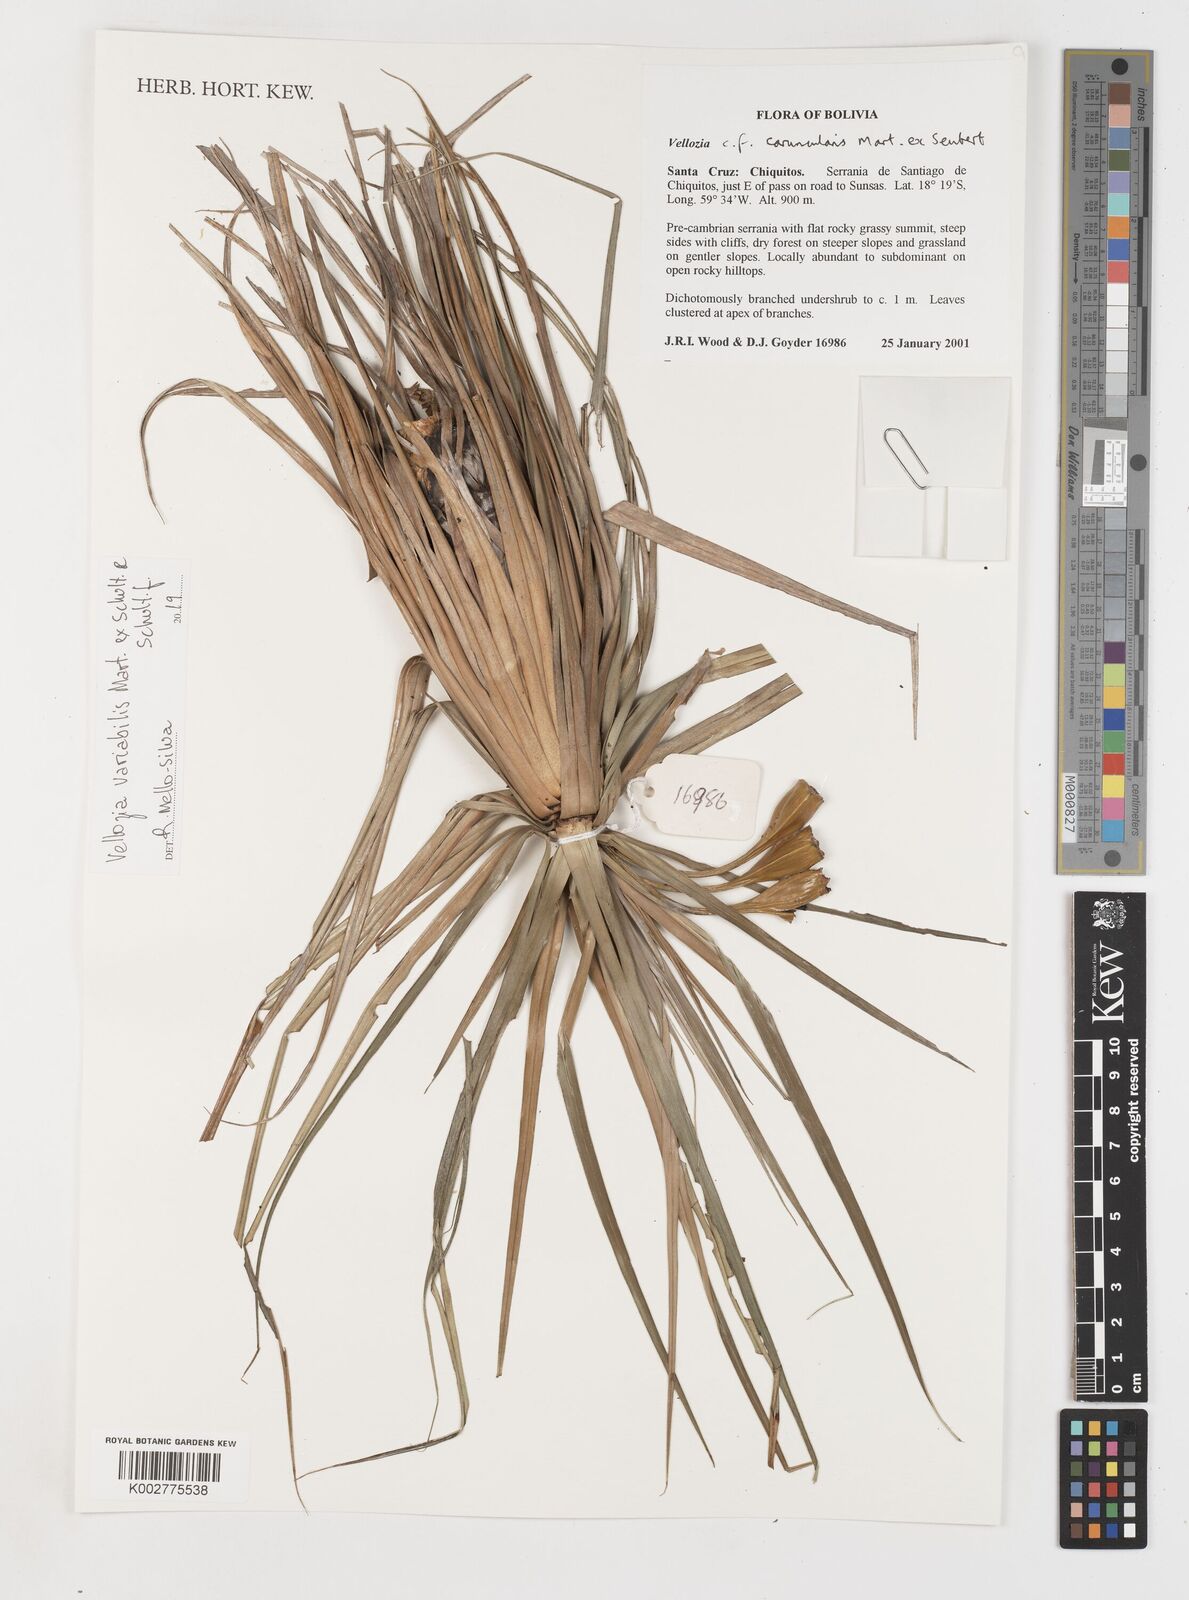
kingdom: Plantae
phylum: Tracheophyta
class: Liliopsida
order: Pandanales
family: Velloziaceae
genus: Vellozia
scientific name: Vellozia alutacea
